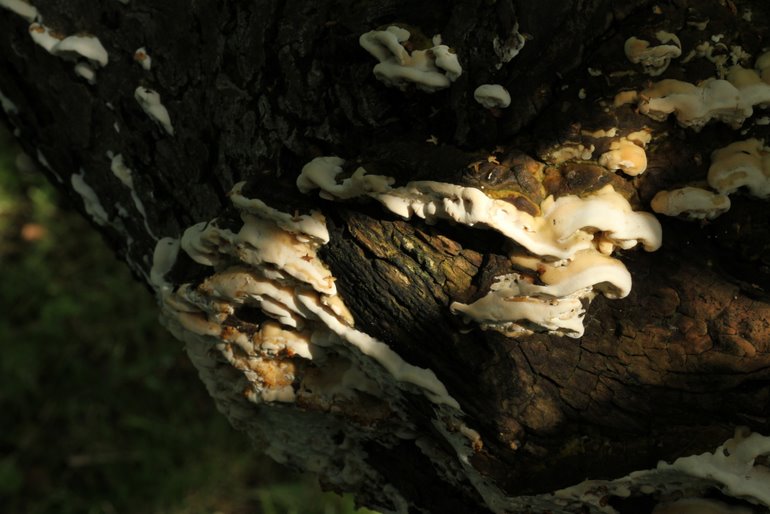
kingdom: Fungi
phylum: Basidiomycota
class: Agaricomycetes
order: Hymenochaetales
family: Oxyporaceae
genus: Oxyporus
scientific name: Oxyporus populinus
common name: sammenvokset trylleporesvamp
